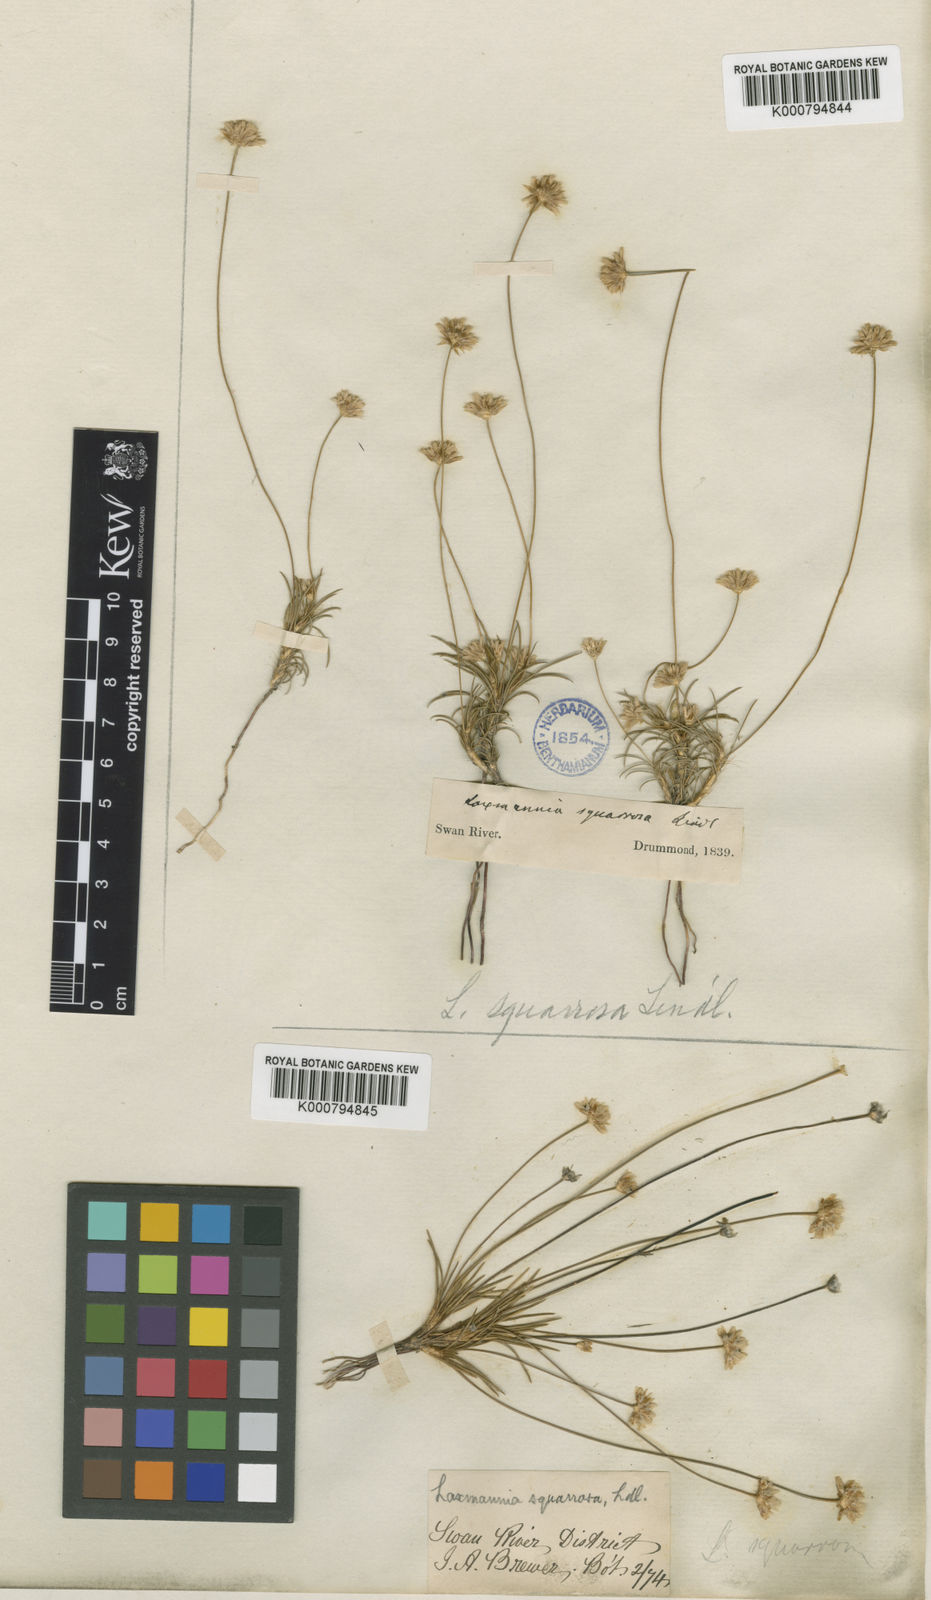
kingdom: Plantae
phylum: Tracheophyta
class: Liliopsida
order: Asparagales
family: Asparagaceae
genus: Laxmannia
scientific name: Laxmannia squarrosa
